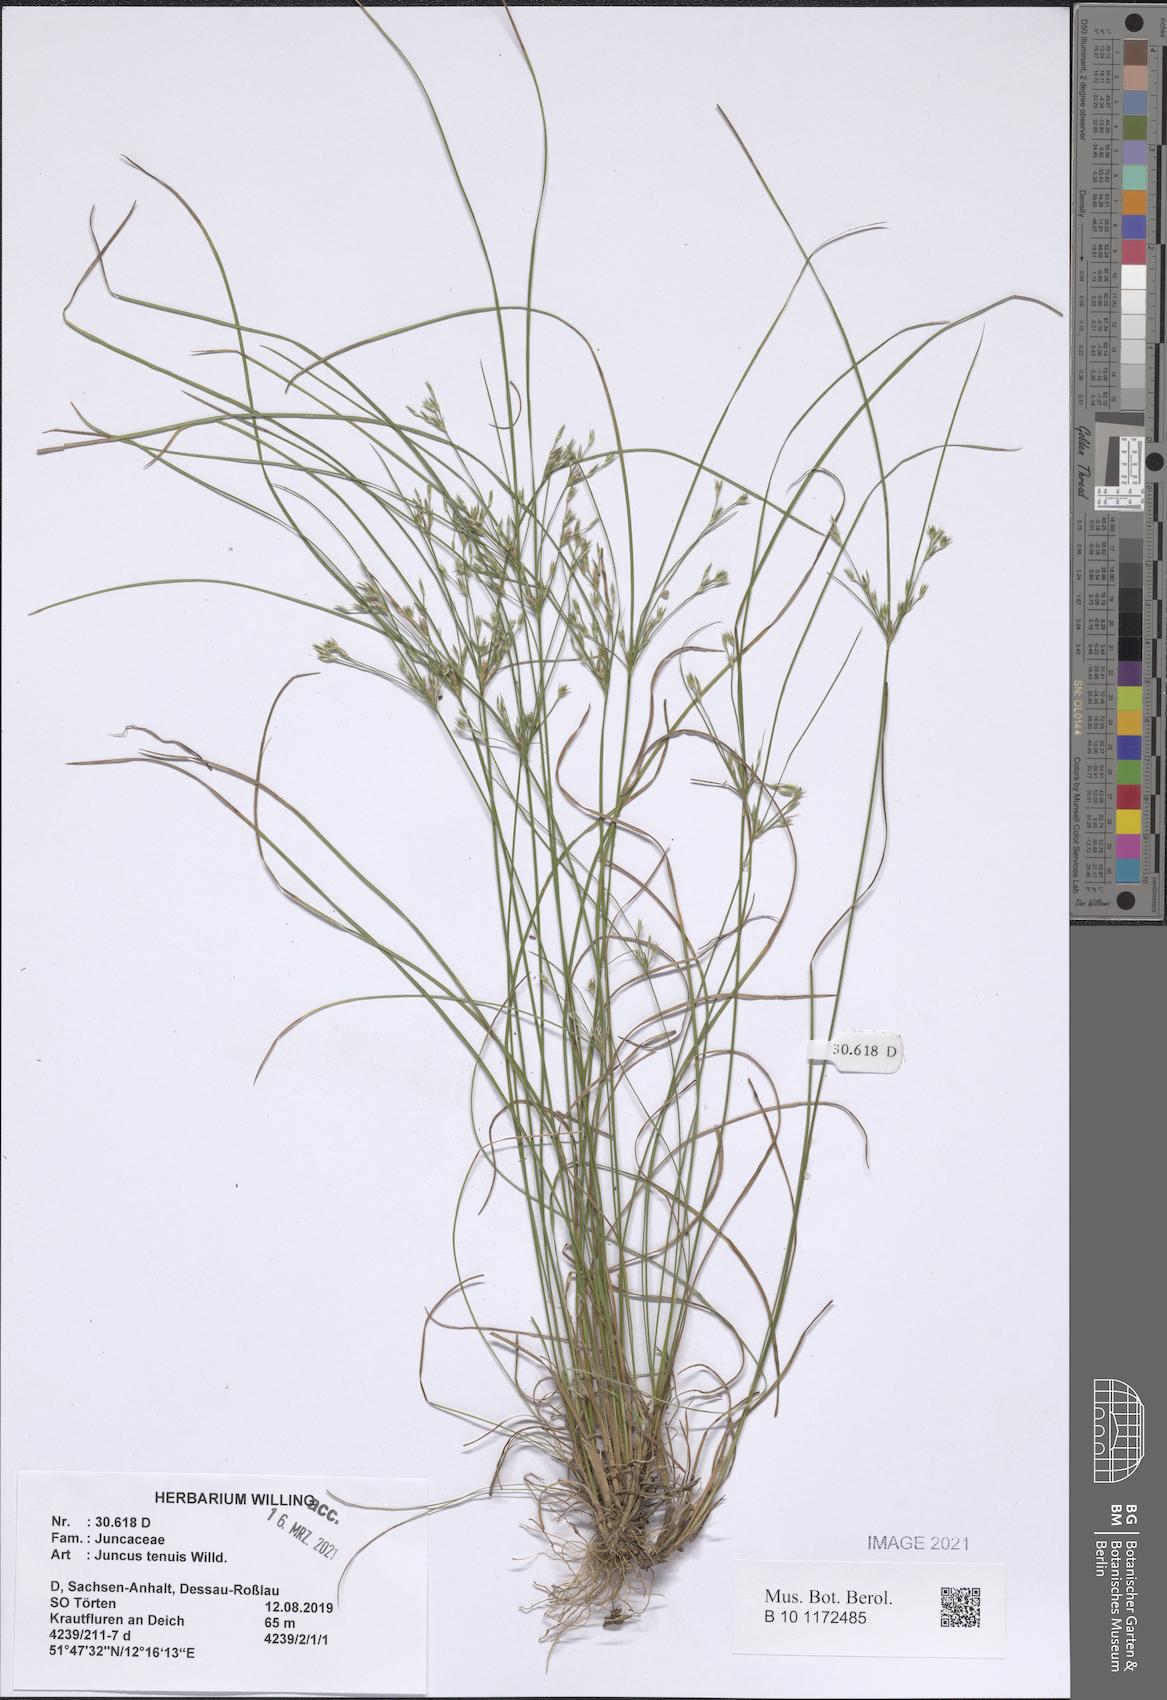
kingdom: Plantae
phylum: Tracheophyta
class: Liliopsida
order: Poales
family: Juncaceae
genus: Juncus
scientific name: Juncus tenuis
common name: Slender rush
